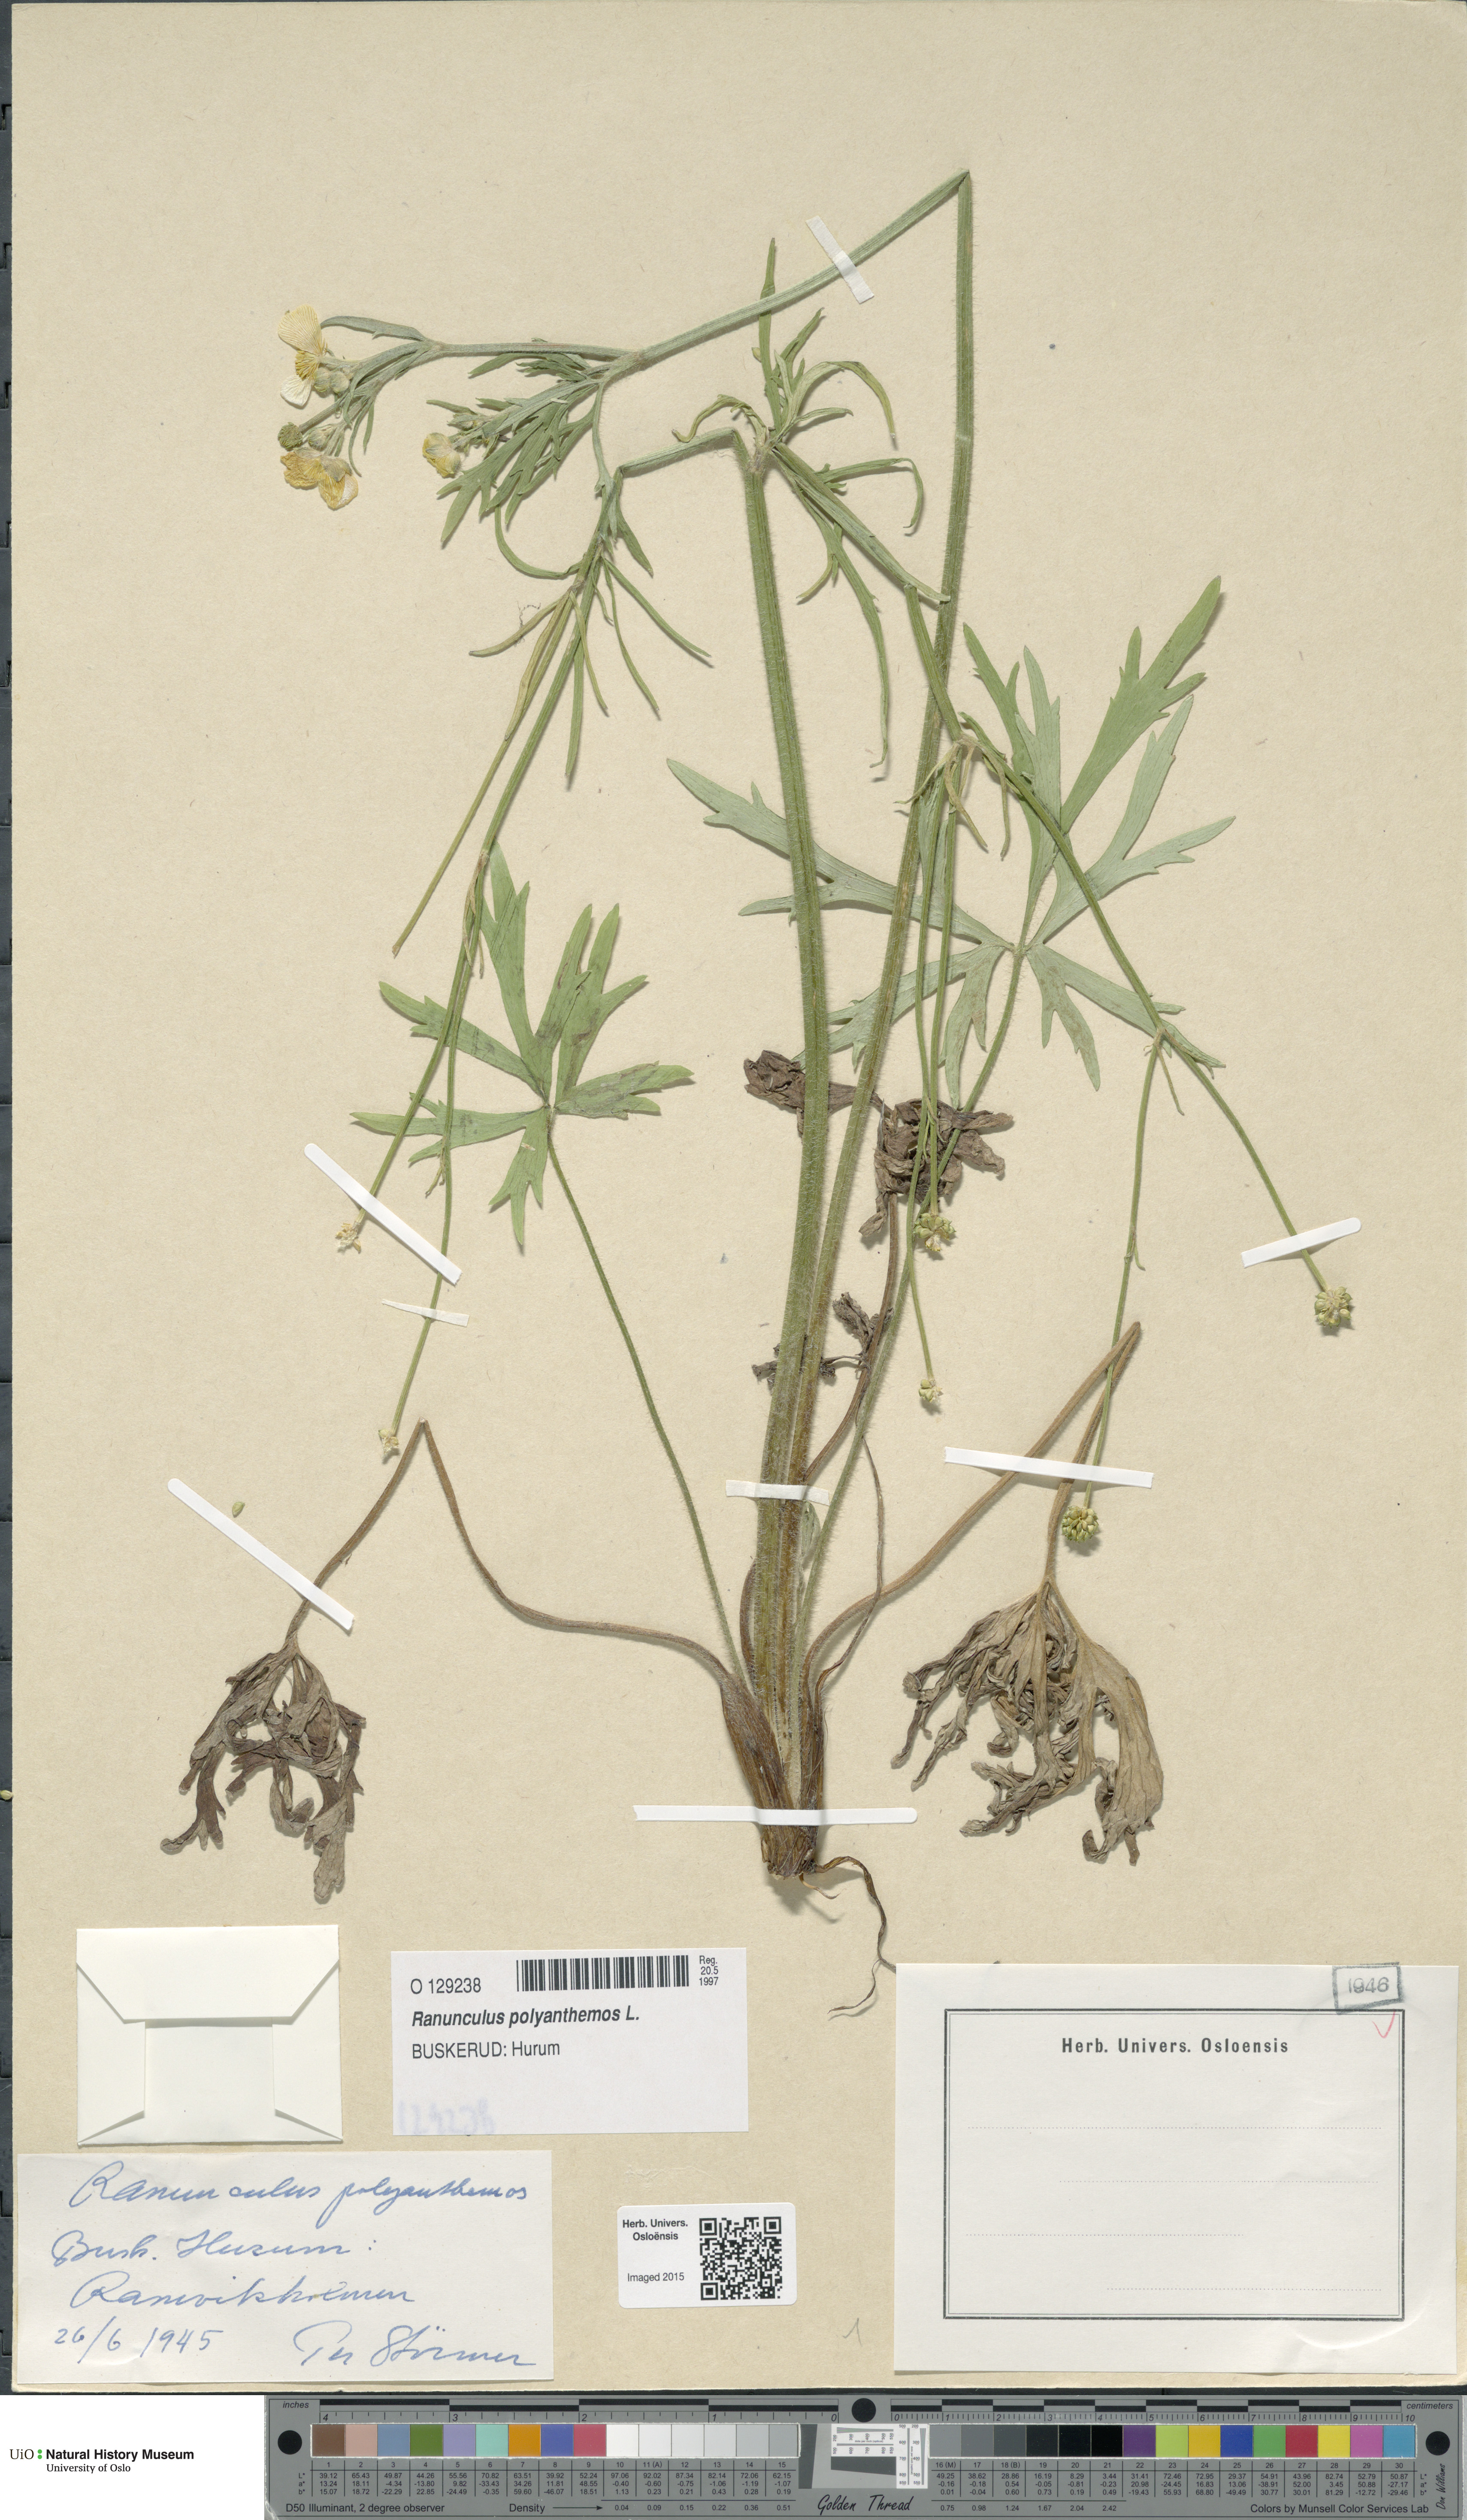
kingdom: Plantae
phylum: Tracheophyta
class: Magnoliopsida
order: Ranunculales
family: Ranunculaceae
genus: Ranunculus
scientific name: Ranunculus polyanthemos
